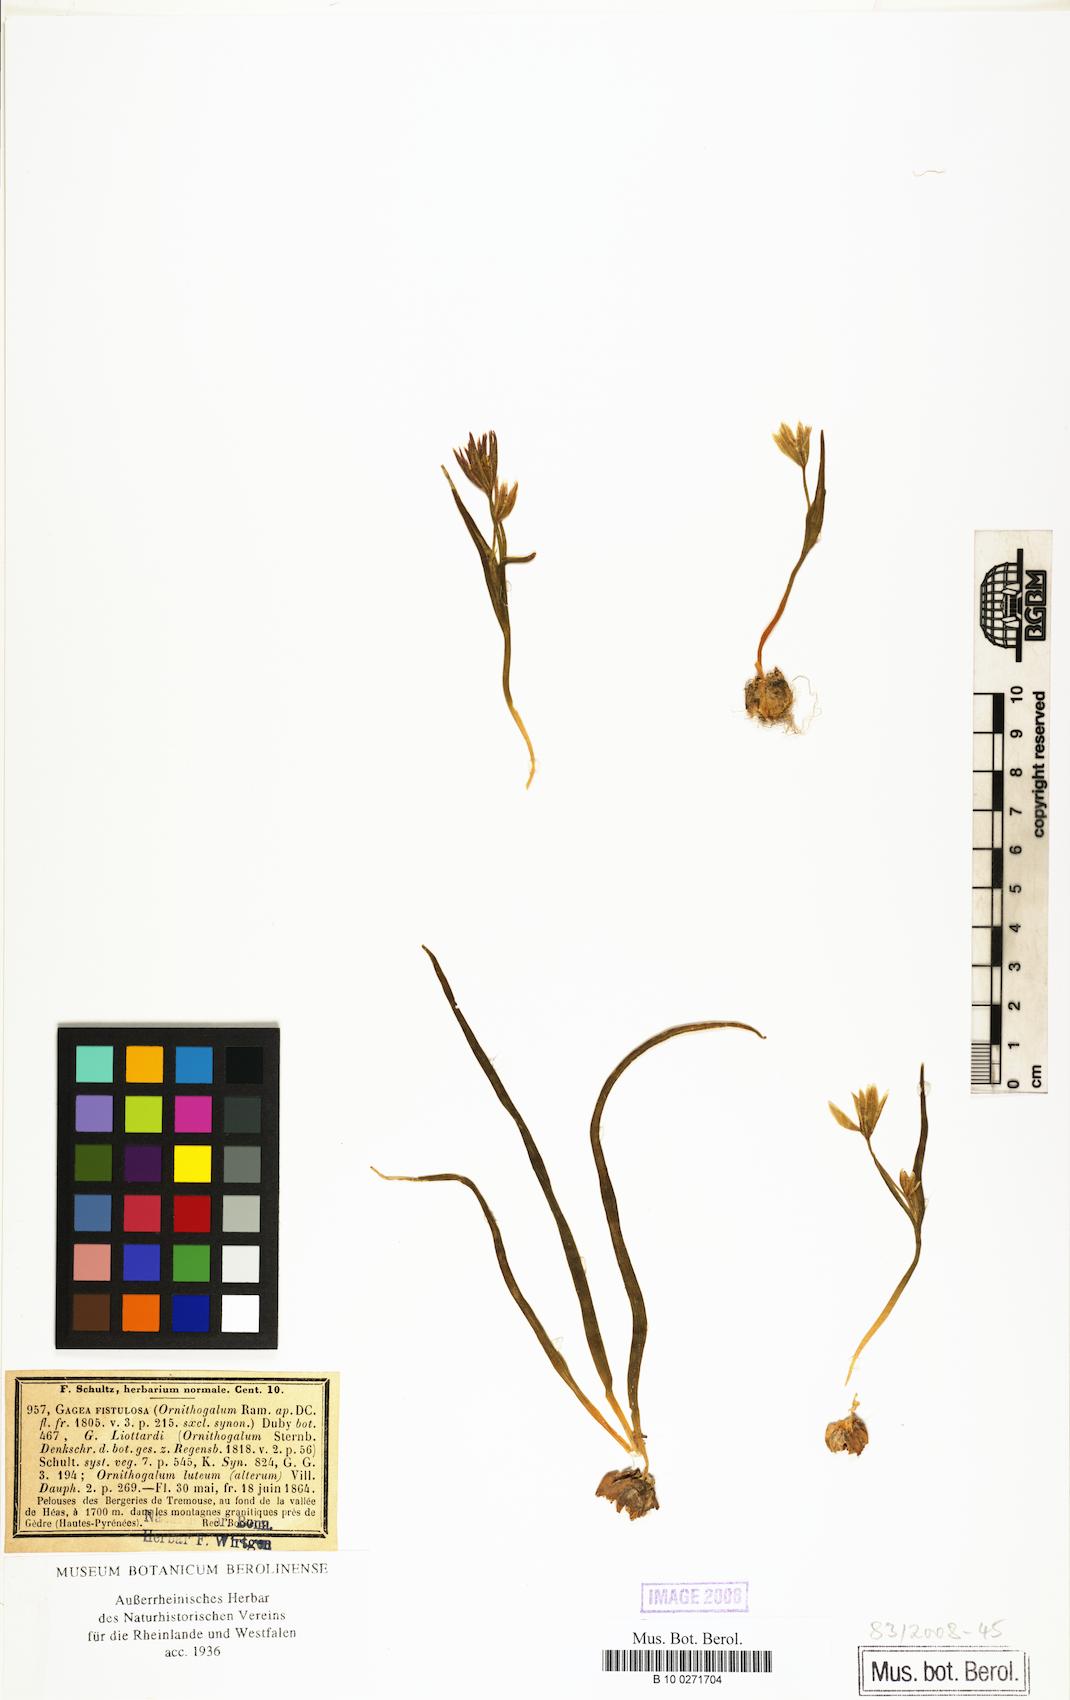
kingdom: Plantae
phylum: Tracheophyta
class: Liliopsida
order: Liliales
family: Liliaceae
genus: Gagea
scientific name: Gagea bohemica
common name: Early star-of-bethlehem
